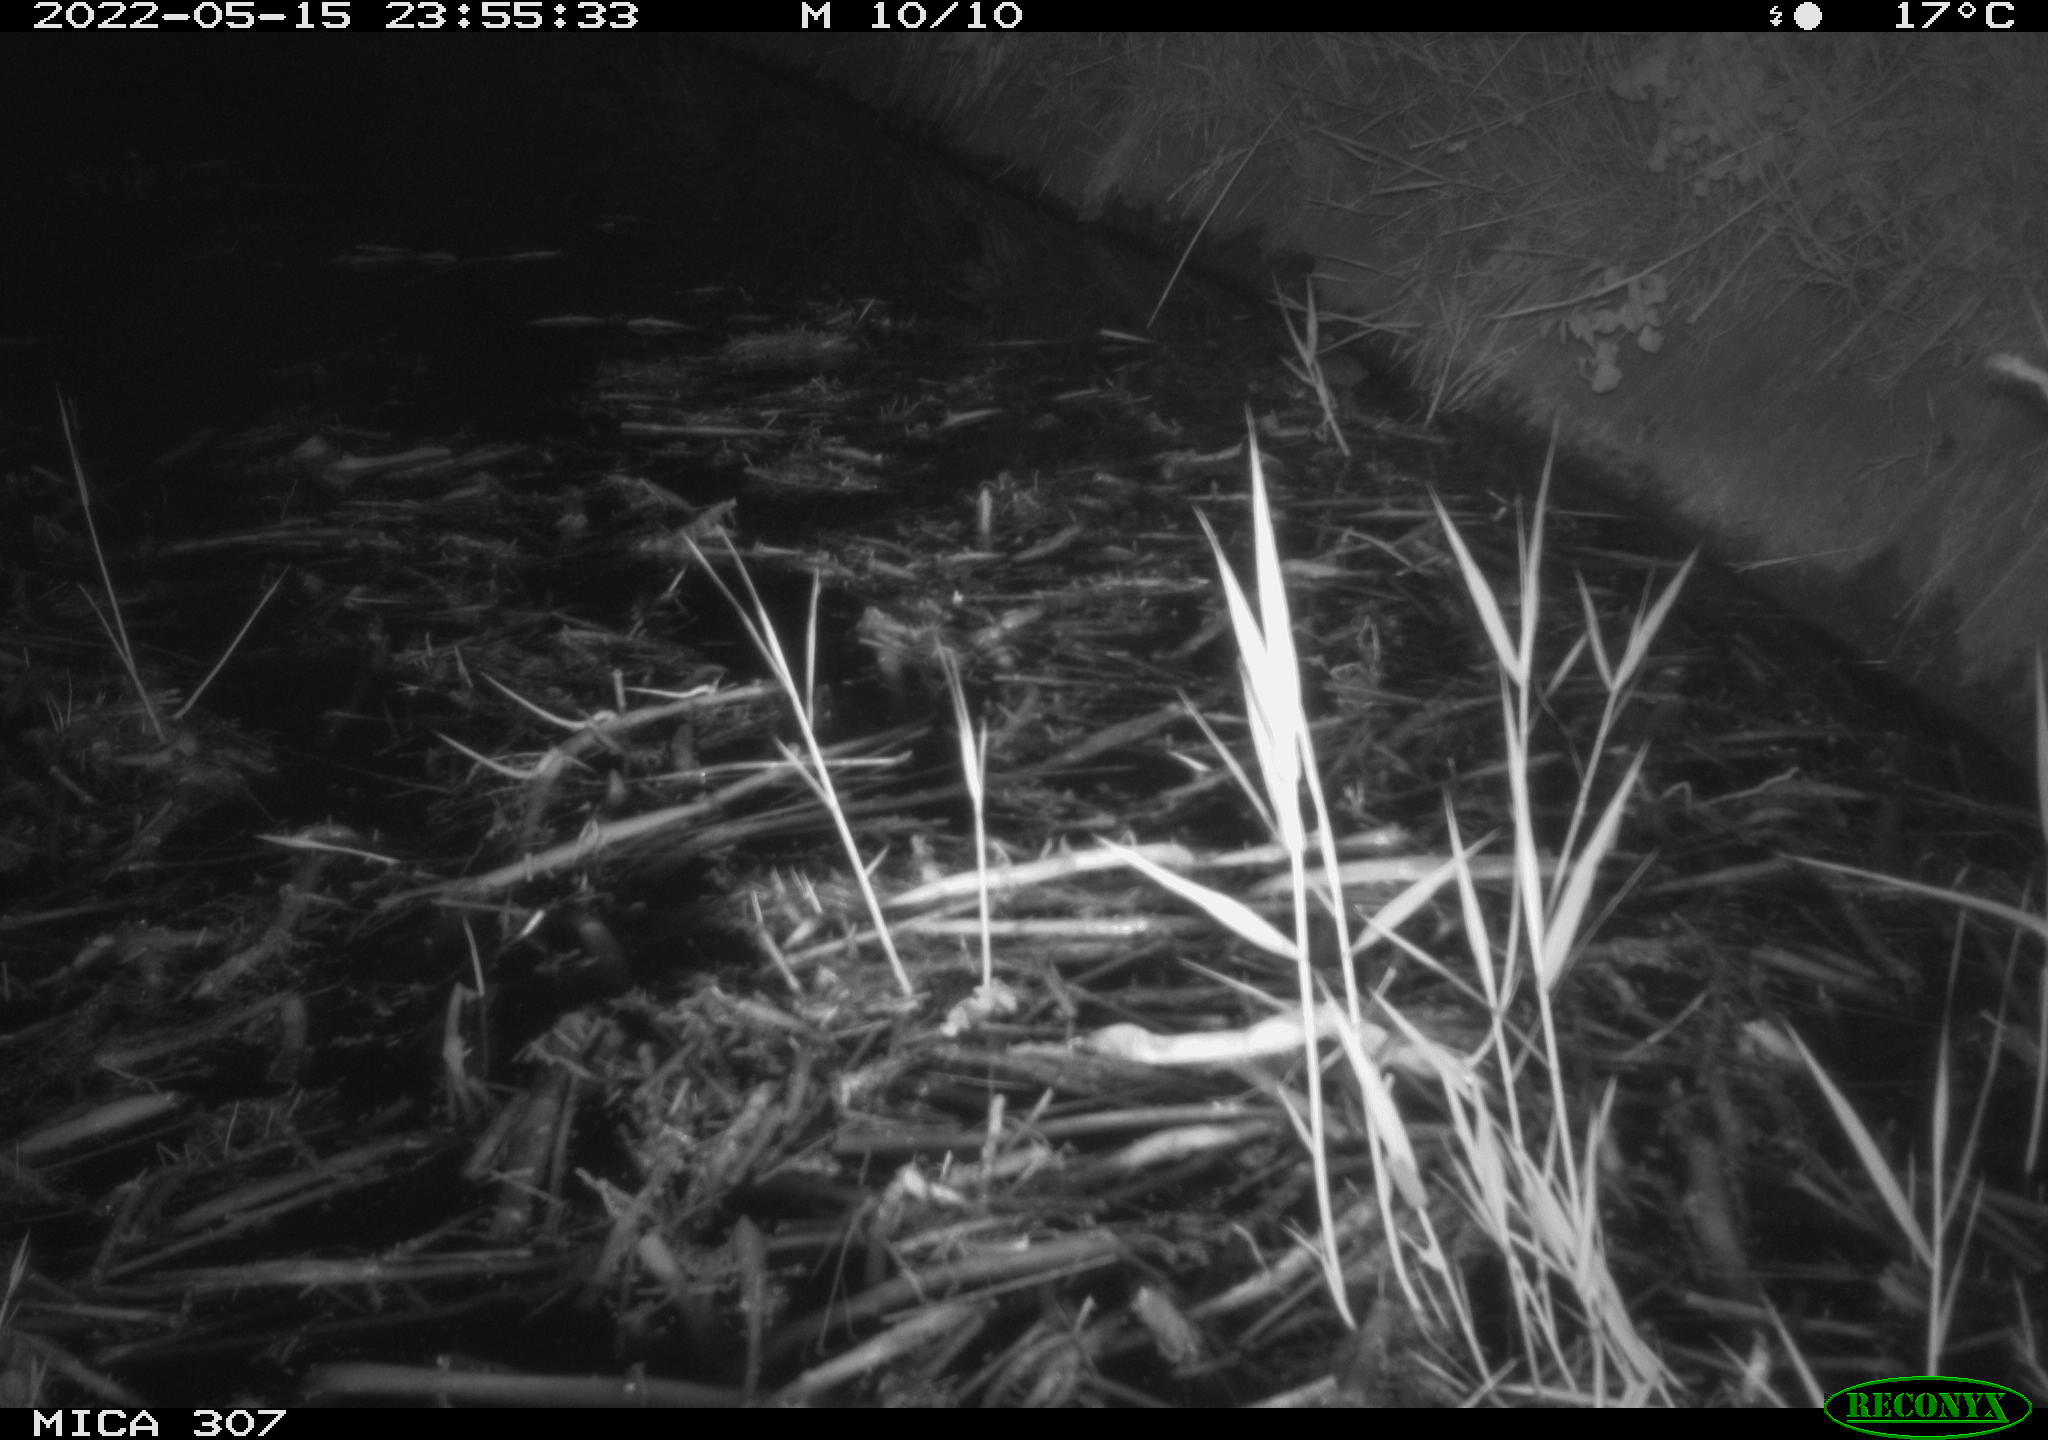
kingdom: Animalia
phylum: Chordata
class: Mammalia
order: Rodentia
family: Cricetidae
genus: Ondatra
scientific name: Ondatra zibethicus
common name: Muskrat
